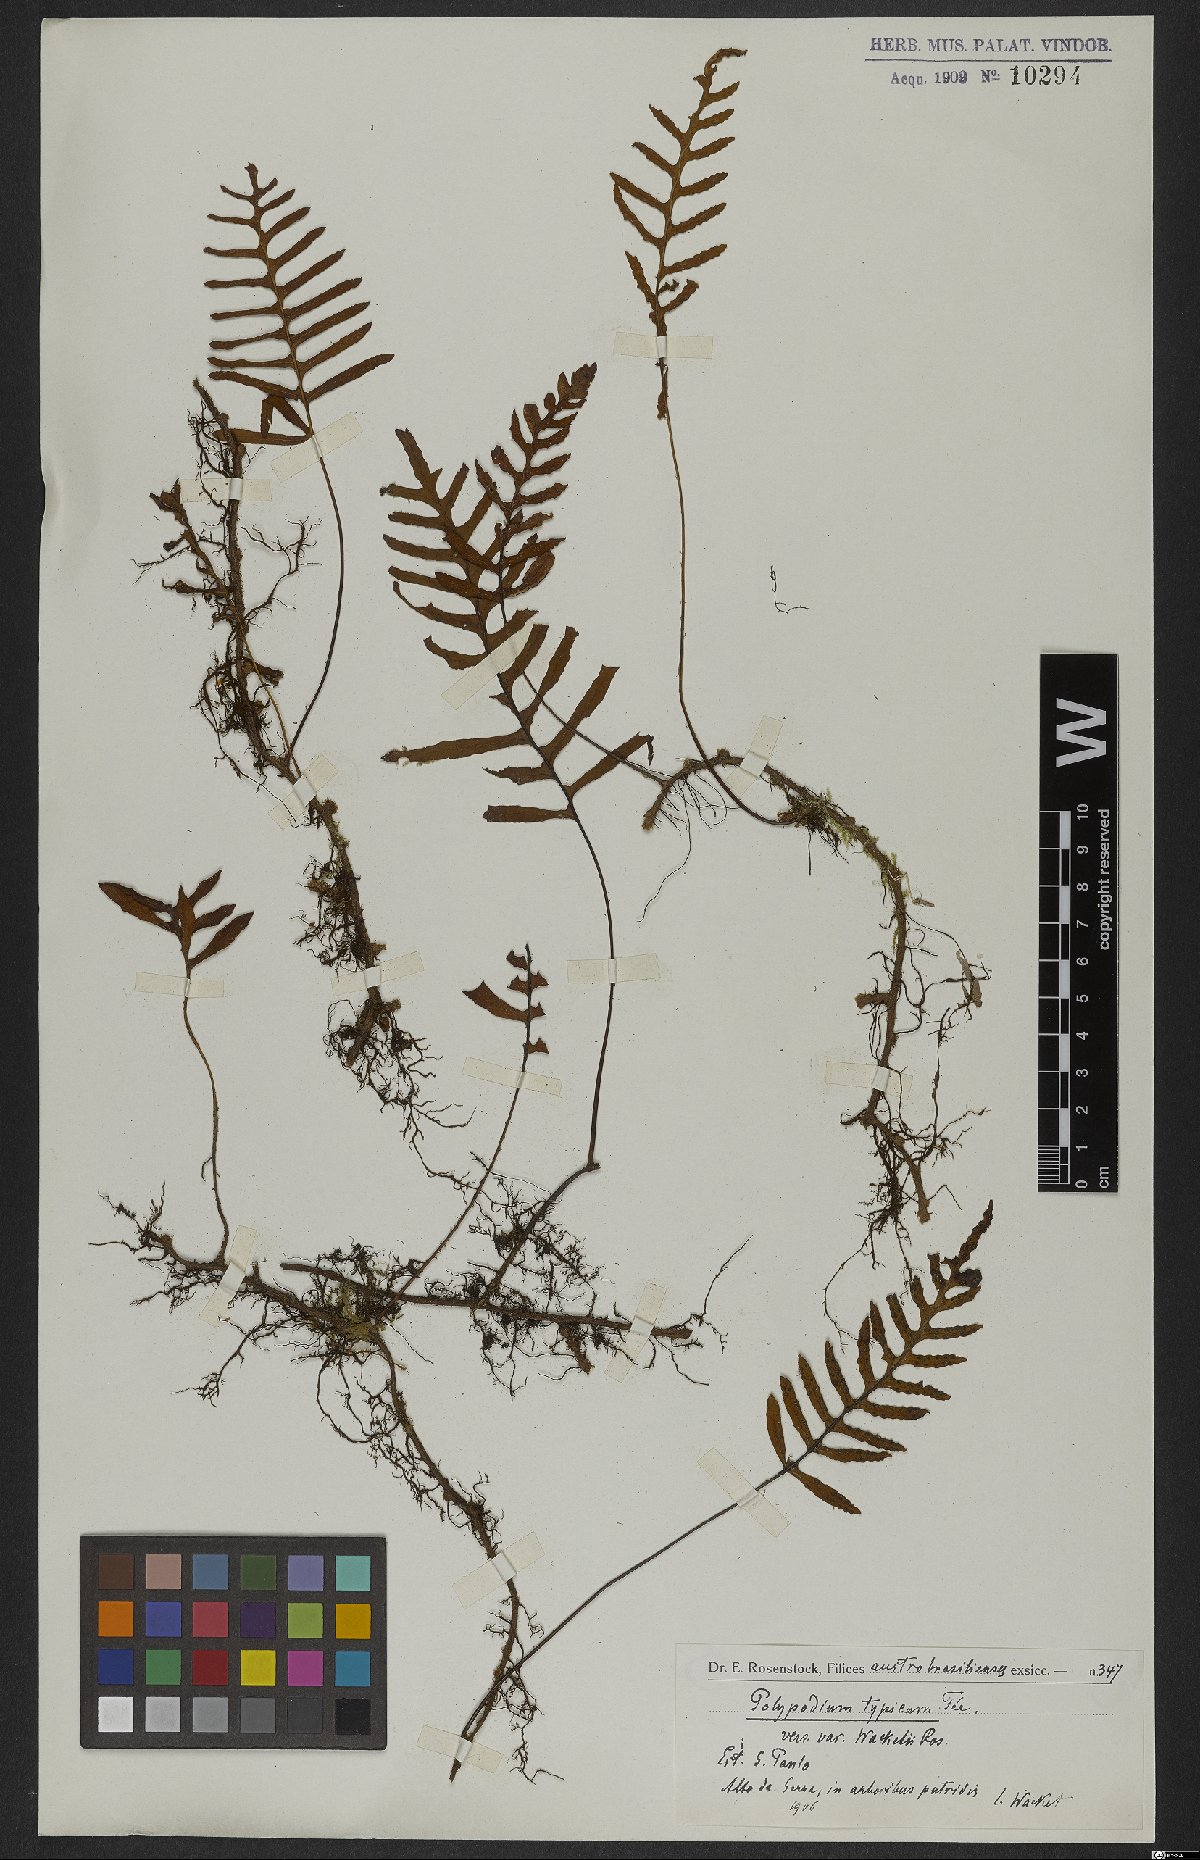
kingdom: Plantae
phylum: Tracheophyta
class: Polypodiopsida
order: Polypodiales
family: Polypodiaceae
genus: Pleopeltis
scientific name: Pleopeltis pleopeltidis
